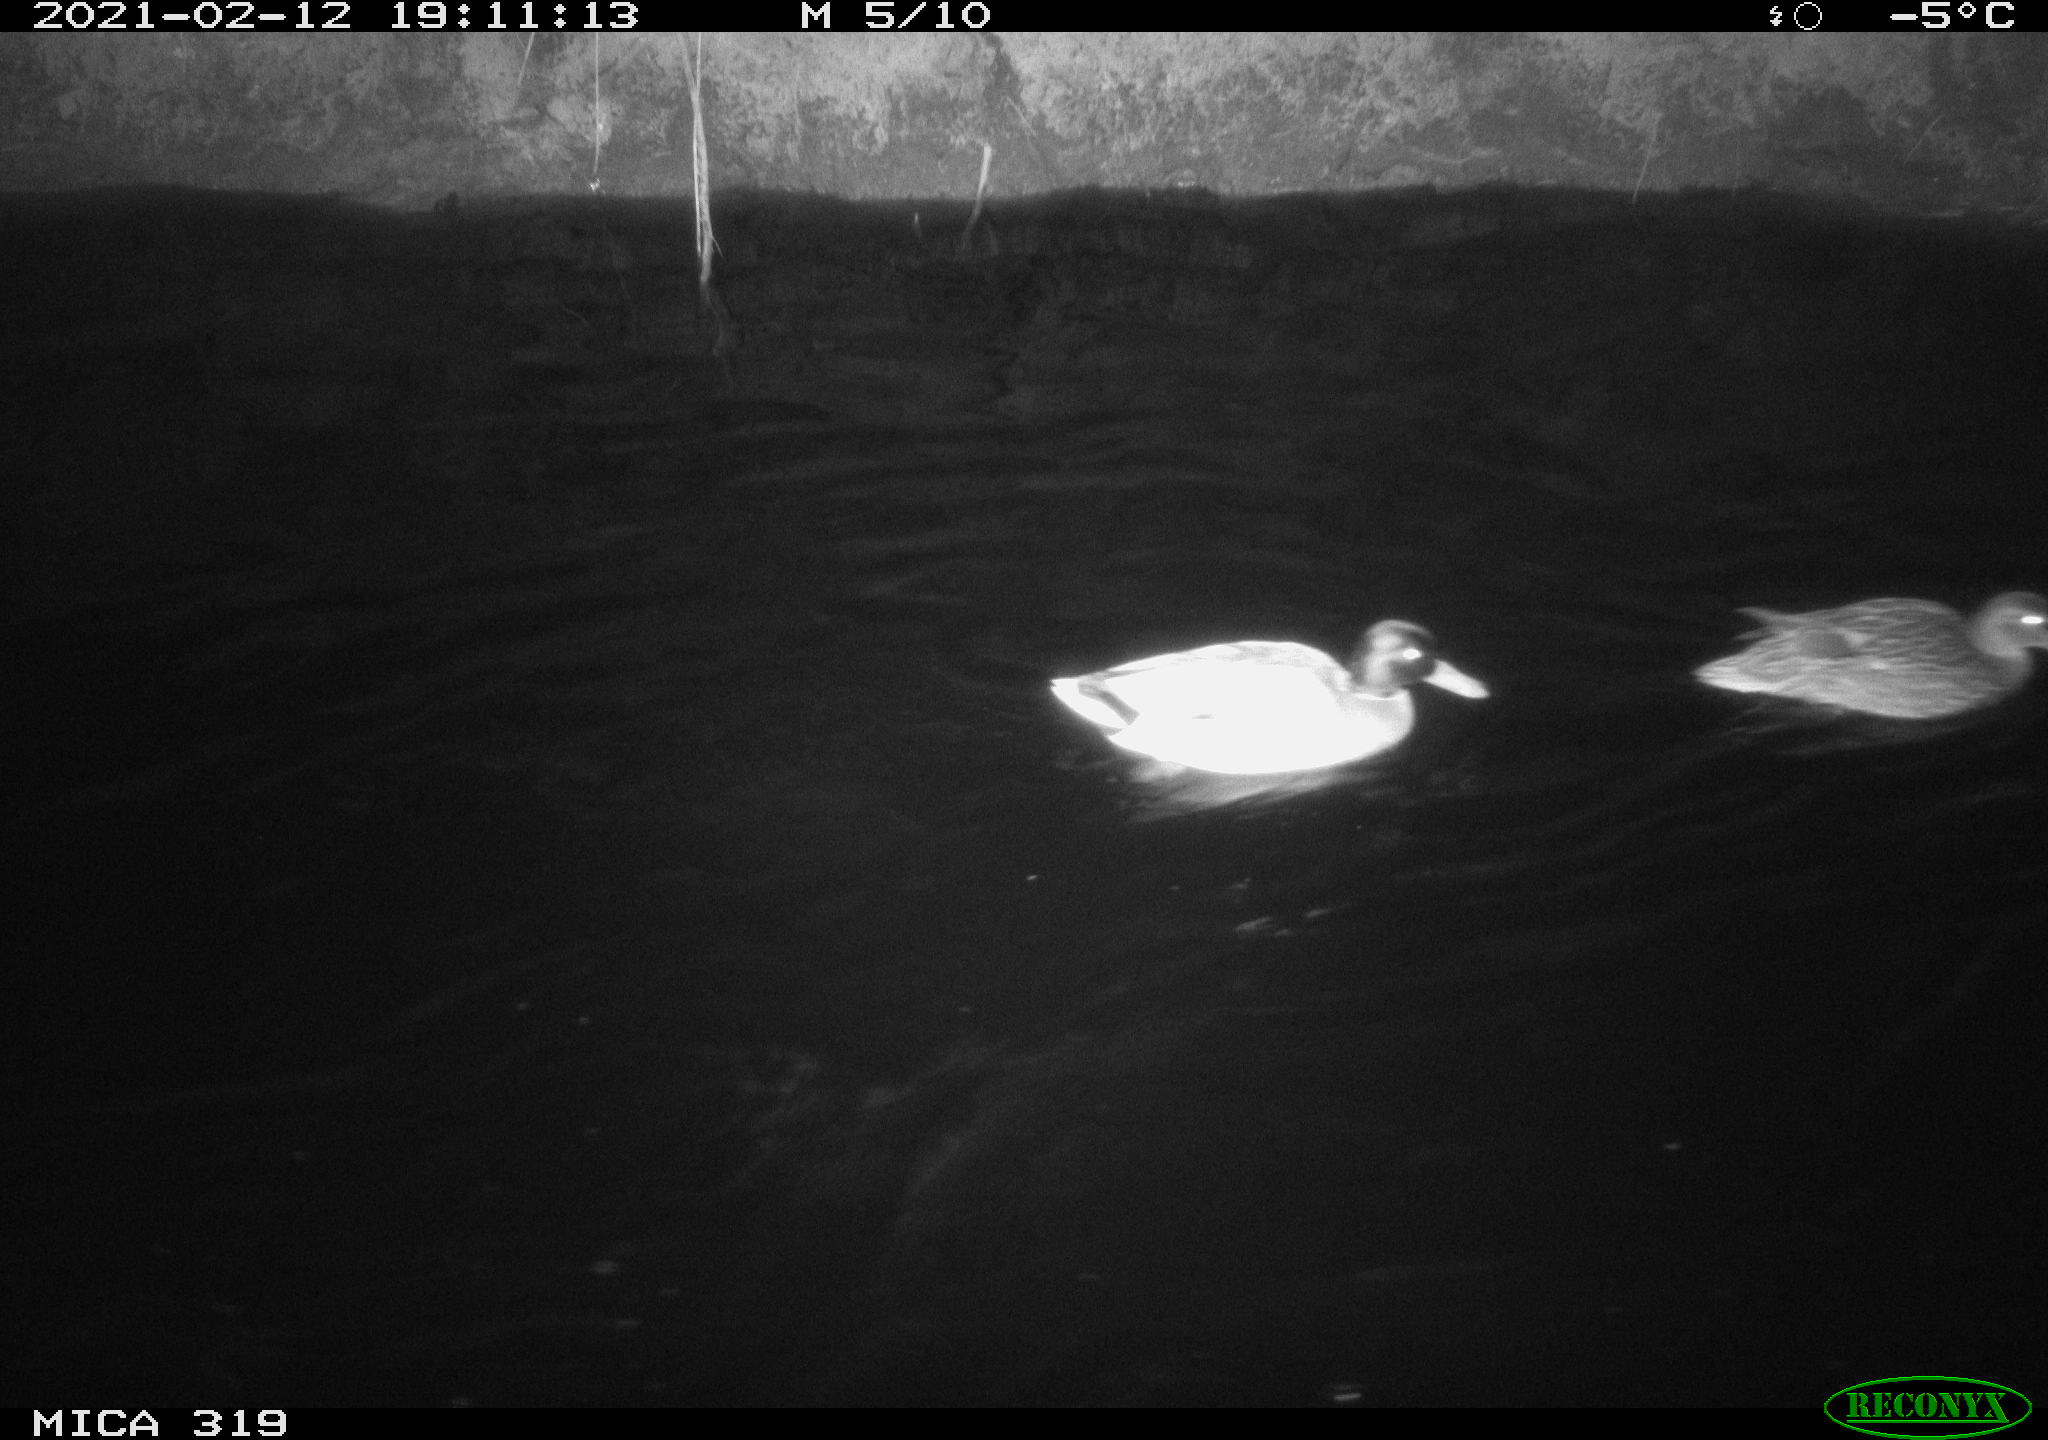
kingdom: Animalia
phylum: Chordata
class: Aves
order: Anseriformes
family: Anatidae
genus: Anas
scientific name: Anas platyrhynchos
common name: Mallard
